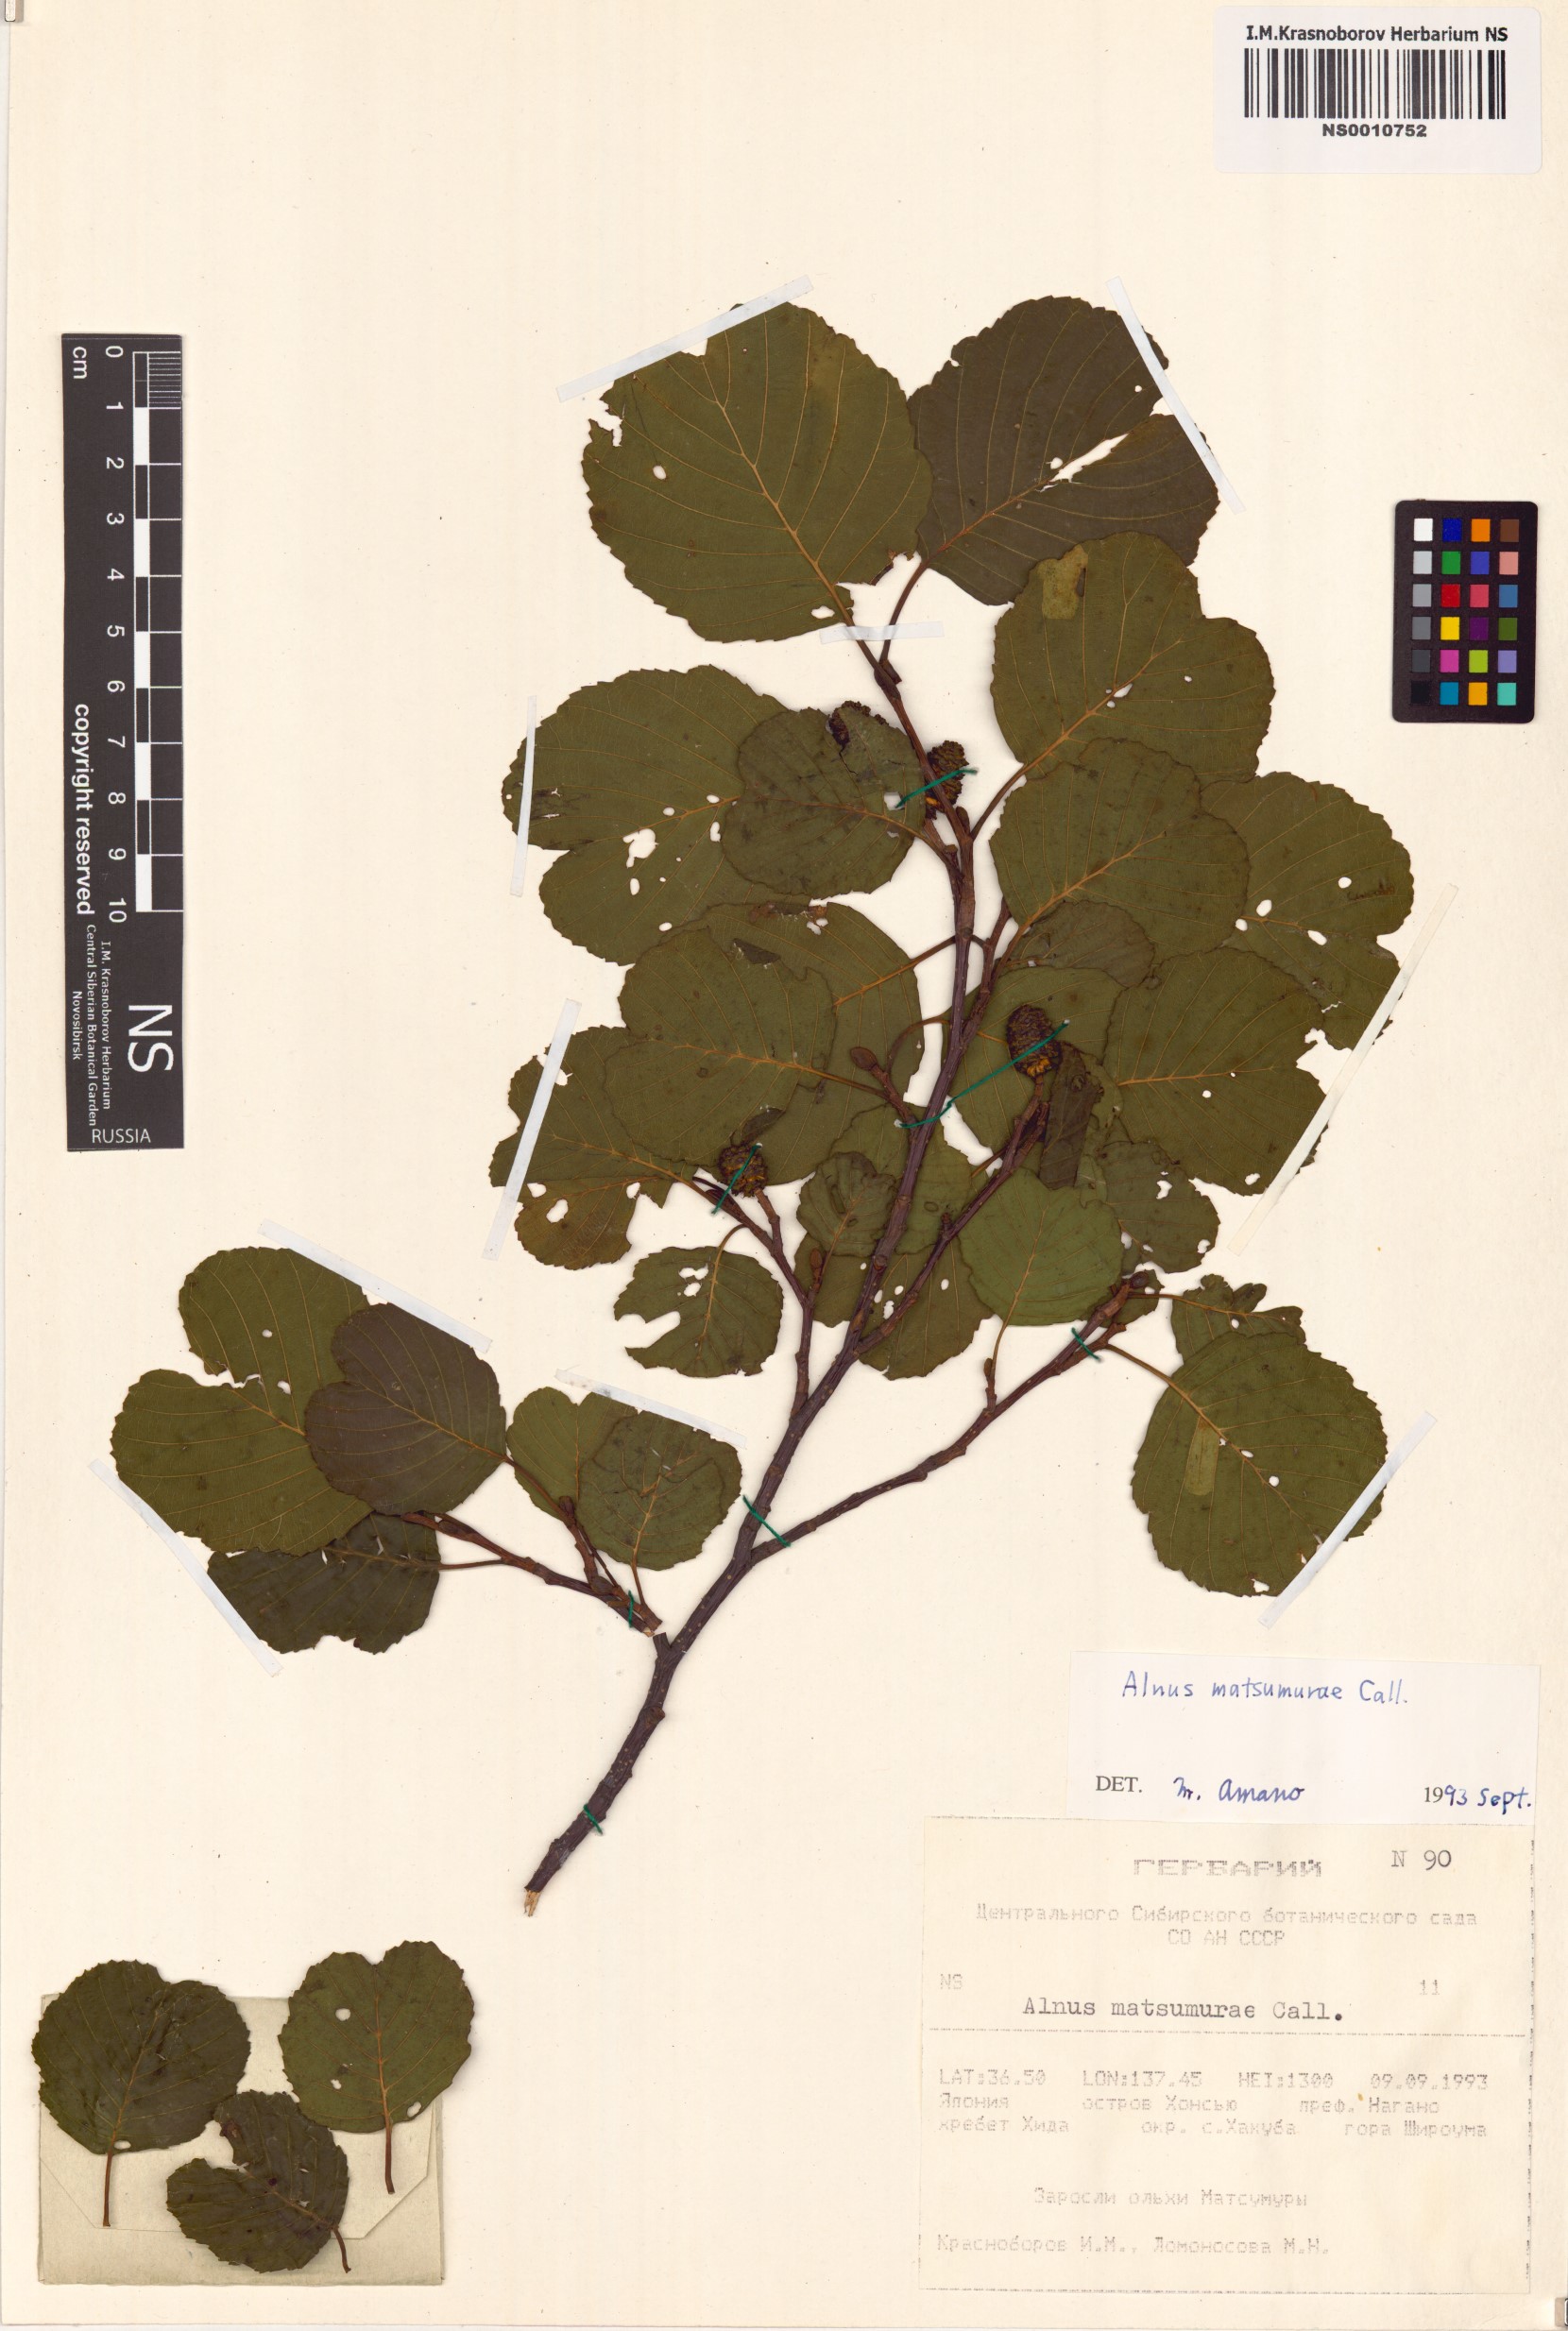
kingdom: Plantae
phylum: Tracheophyta
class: Magnoliopsida
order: Fagales
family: Betulaceae
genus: Alnus
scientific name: Alnus matsumurae
